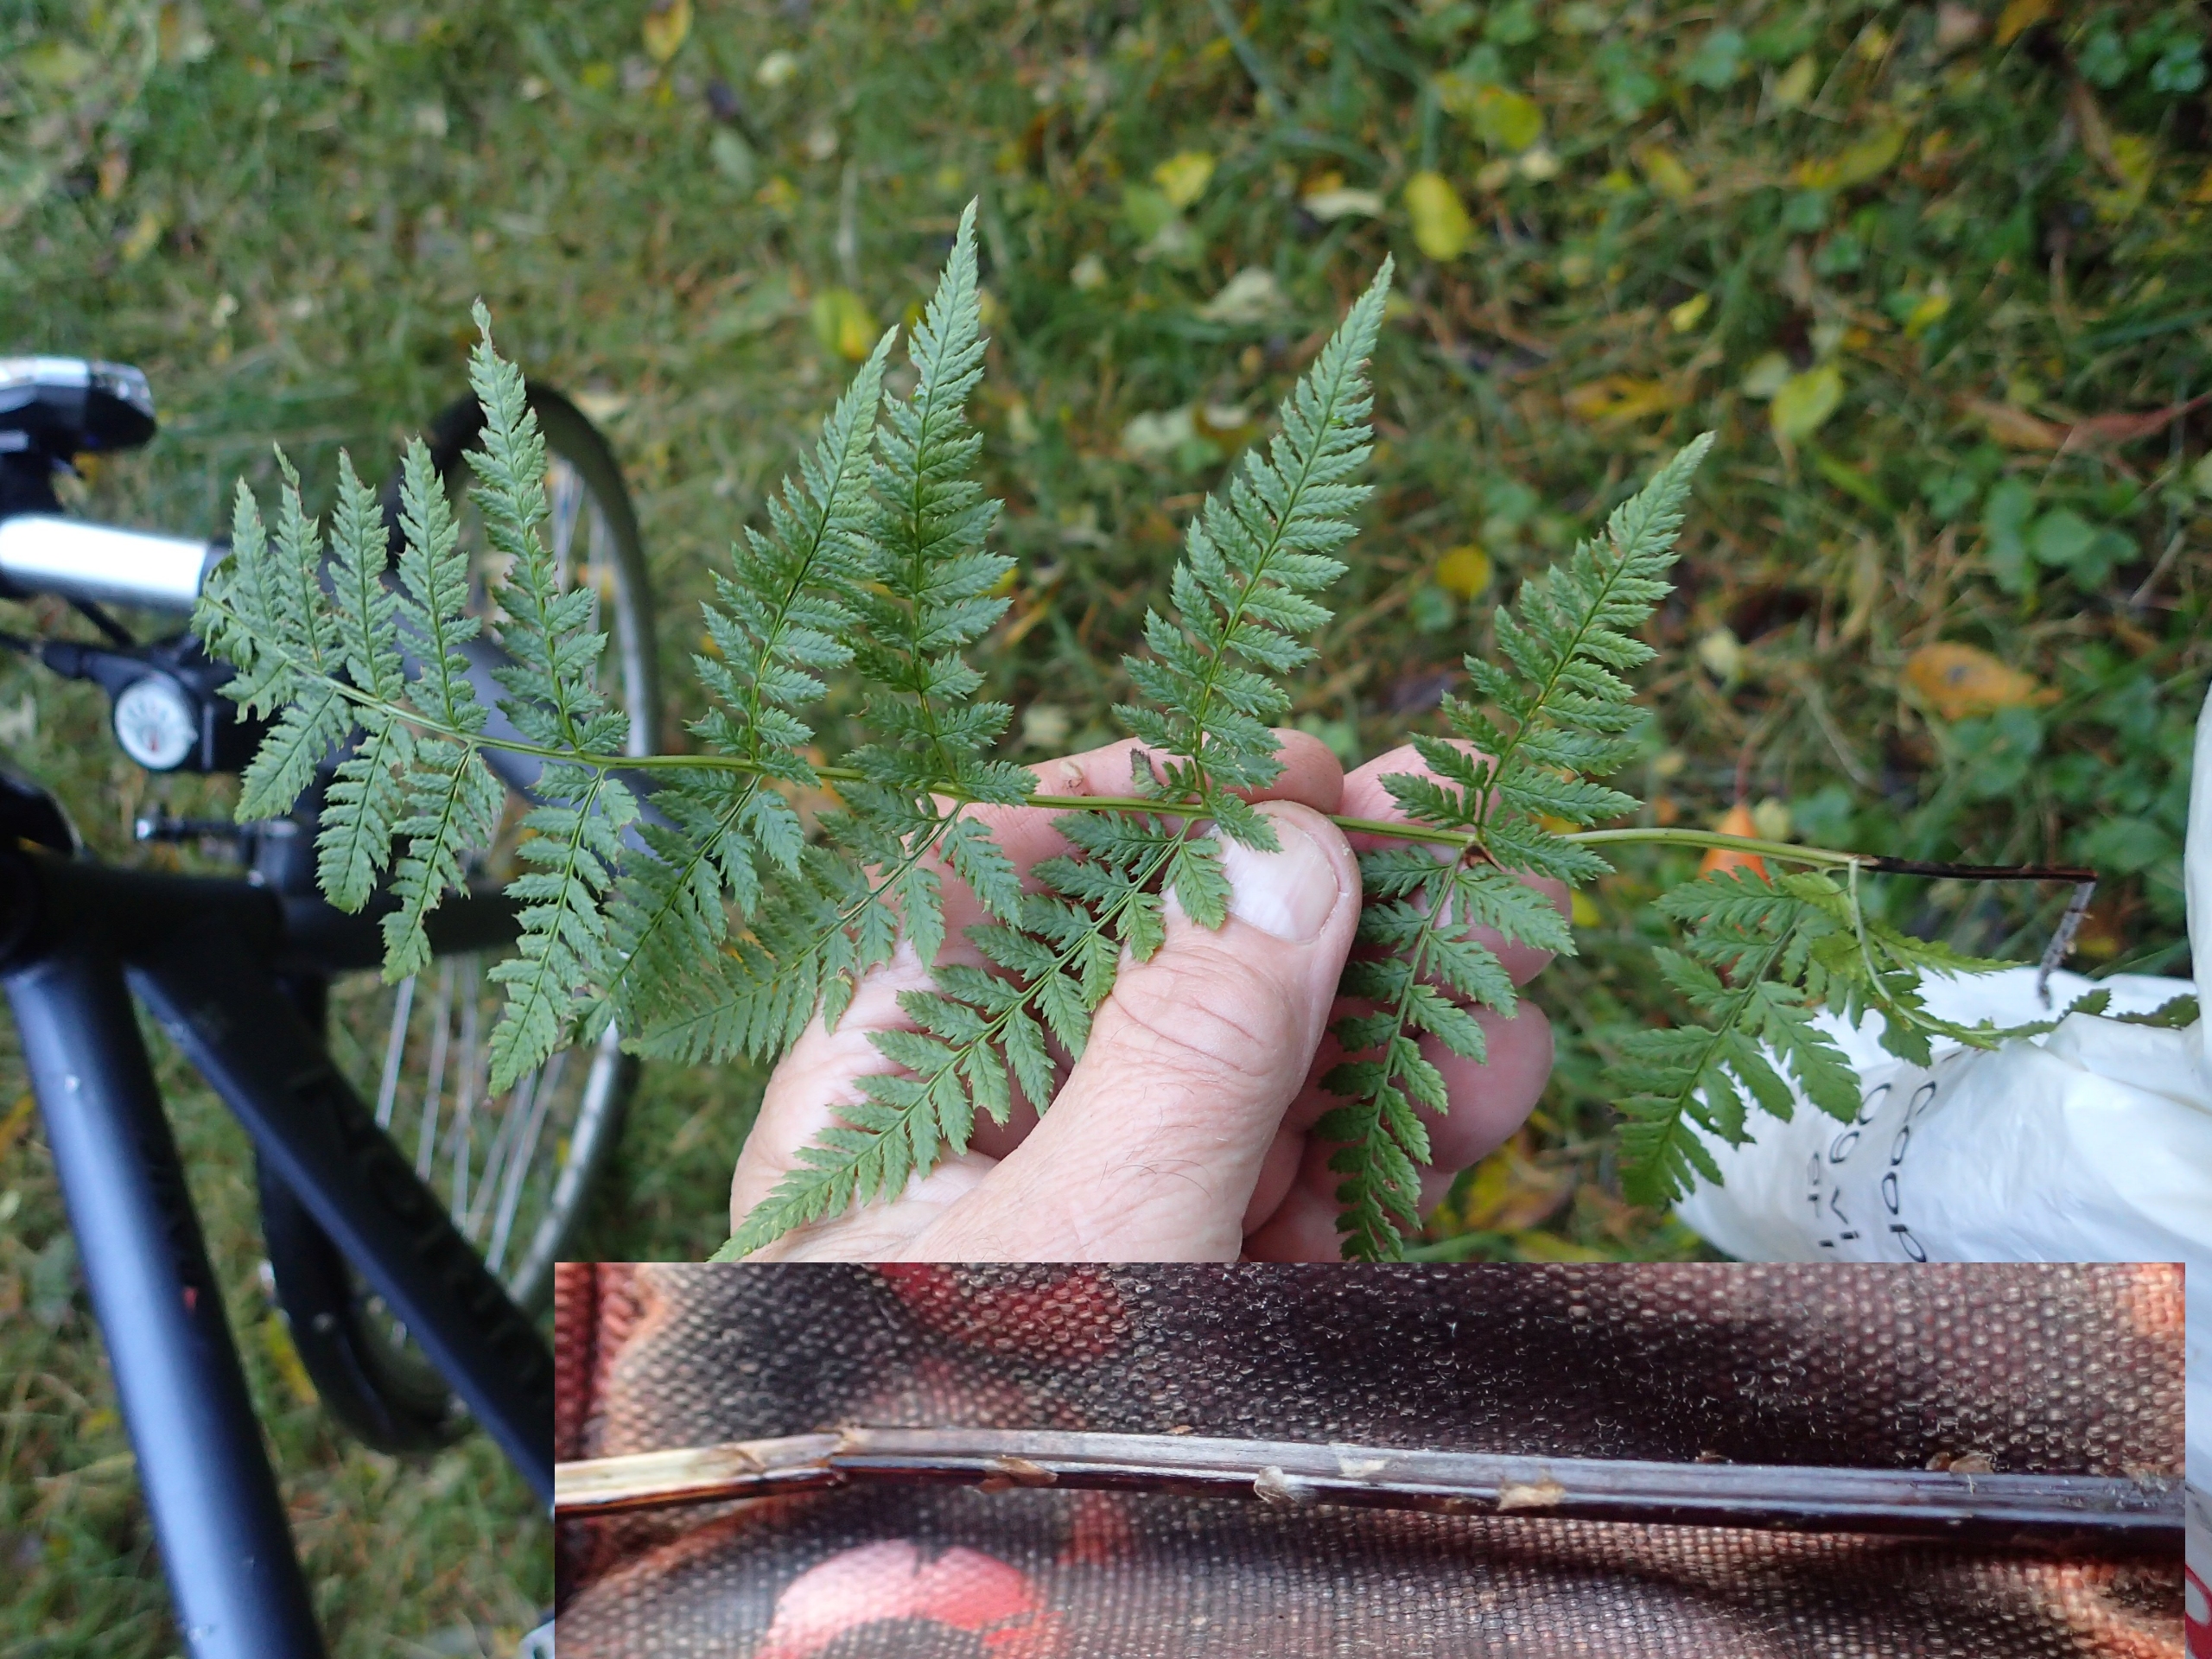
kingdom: Plantae
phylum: Tracheophyta
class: Polypodiopsida
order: Polypodiales
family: Dryopteridaceae
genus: Dryopteris
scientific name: Dryopteris carthusiana
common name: Smalbladet mangeløv
